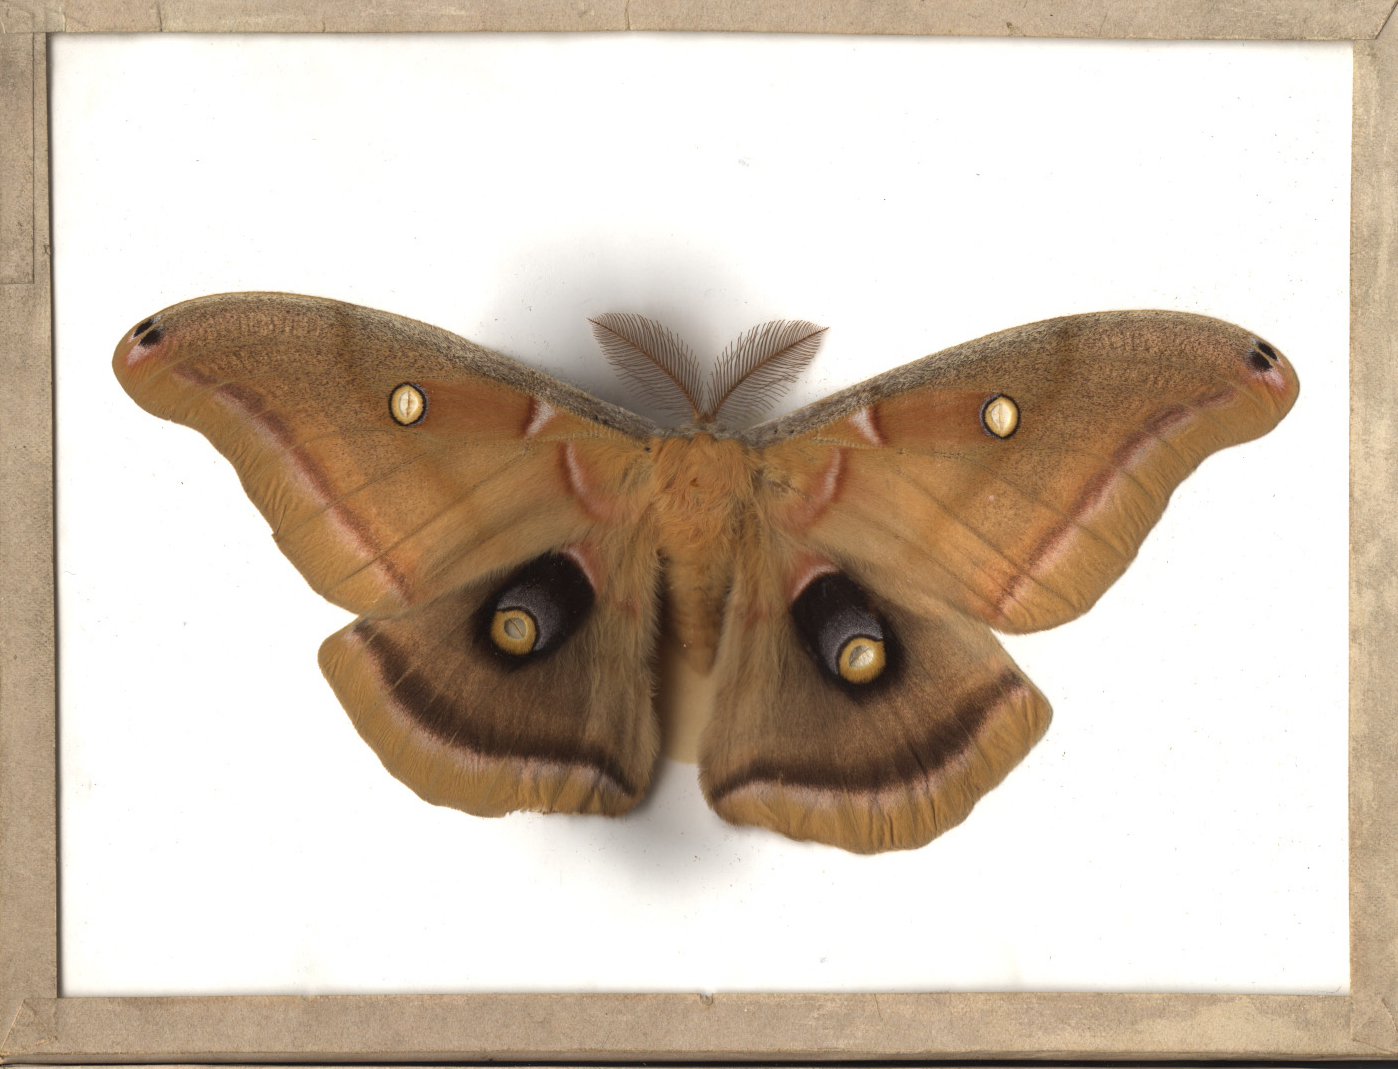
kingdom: Animalia
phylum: Arthropoda
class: Insecta
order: Lepidoptera
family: Saturniidae
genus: Antheraea
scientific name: Antheraea polyphemus
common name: Polyphemus moth
